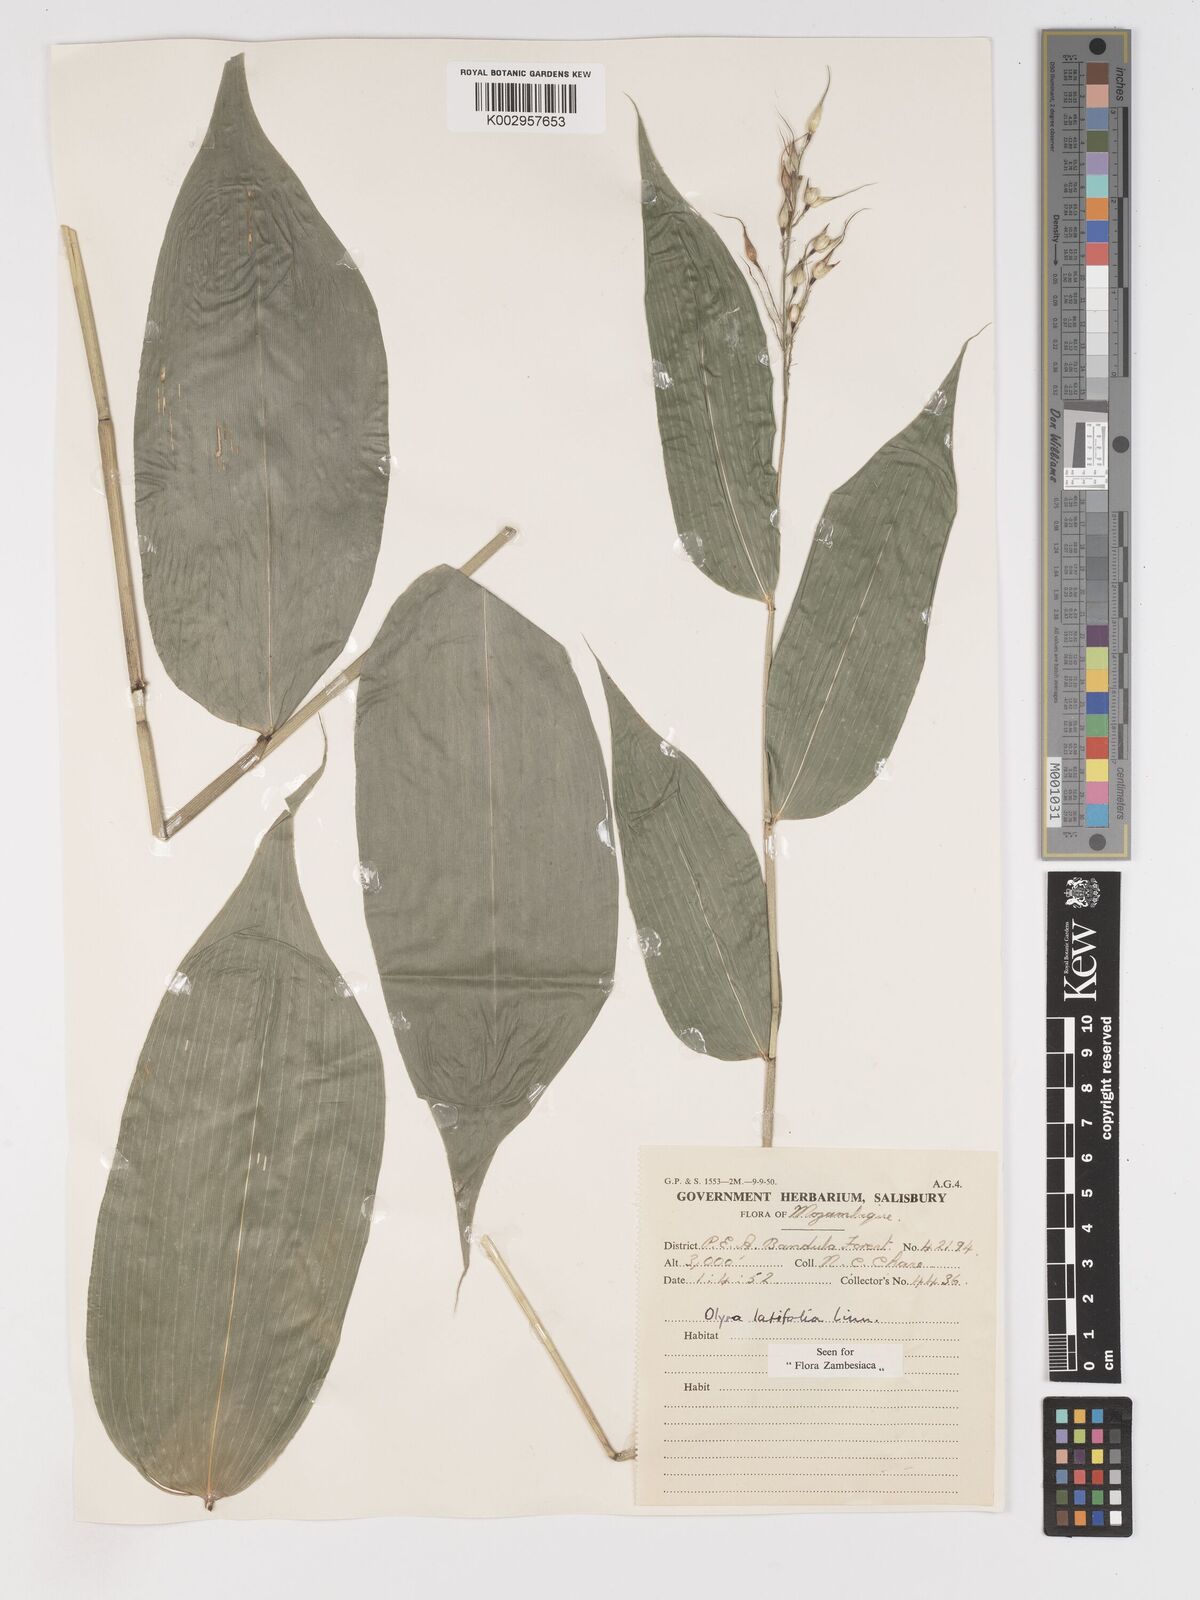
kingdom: Plantae
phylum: Tracheophyta
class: Liliopsida
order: Poales
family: Poaceae
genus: Olyra
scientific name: Olyra latifolia
